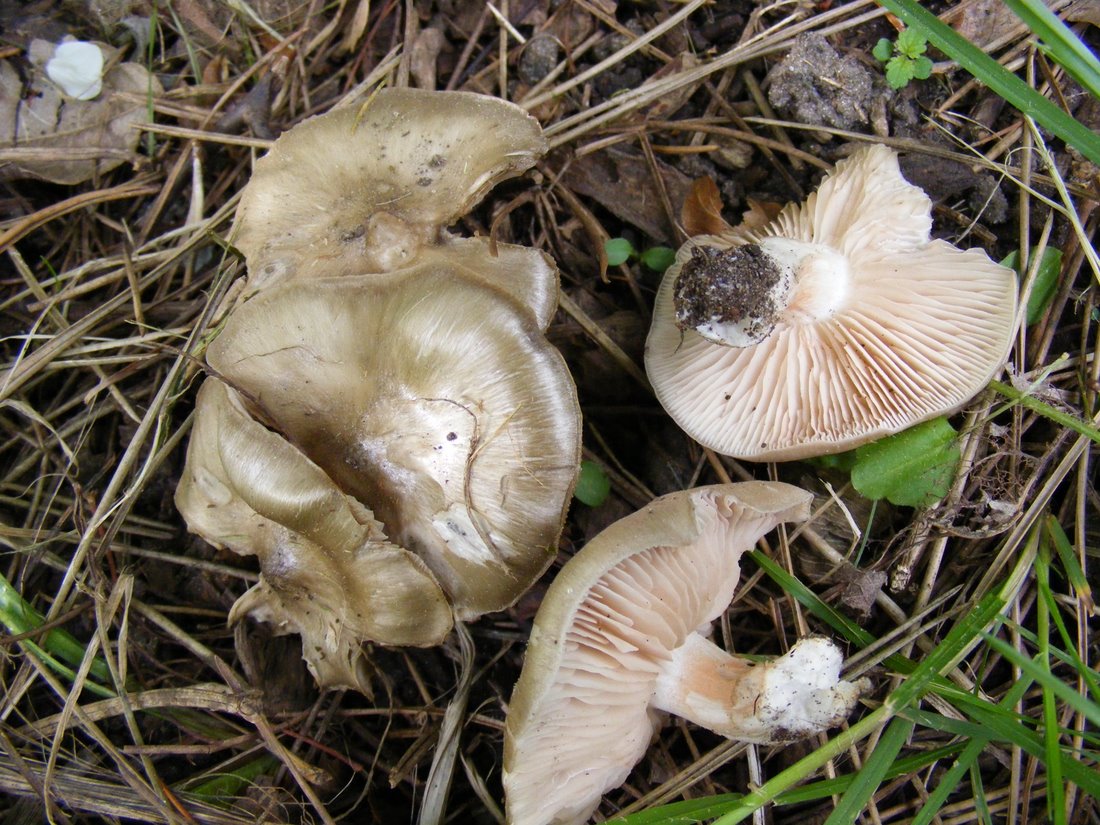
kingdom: Fungi
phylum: Basidiomycota
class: Agaricomycetes
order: Agaricales
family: Entolomataceae
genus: Entoloma
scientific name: Entoloma clypeatum
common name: flammet rødblad
